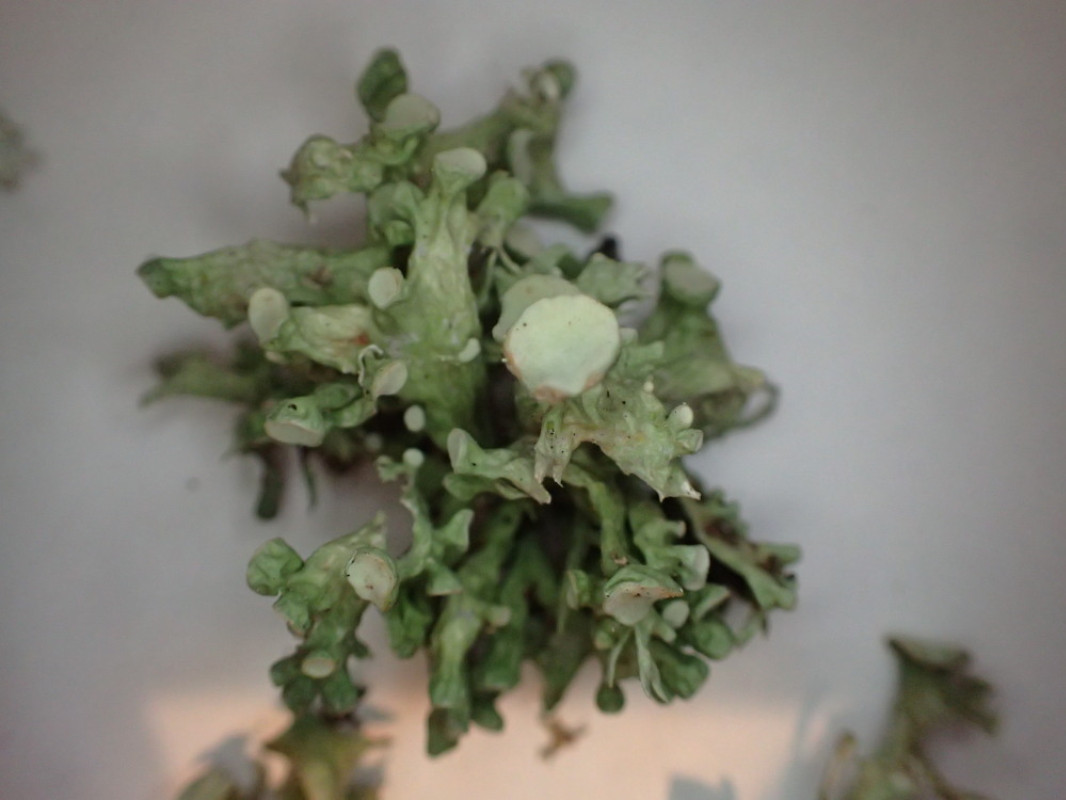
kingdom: Fungi
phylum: Ascomycota
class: Lecanoromycetes
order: Lecanorales
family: Ramalinaceae
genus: Ramalina
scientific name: Ramalina fastigiata
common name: tue-grenlav
